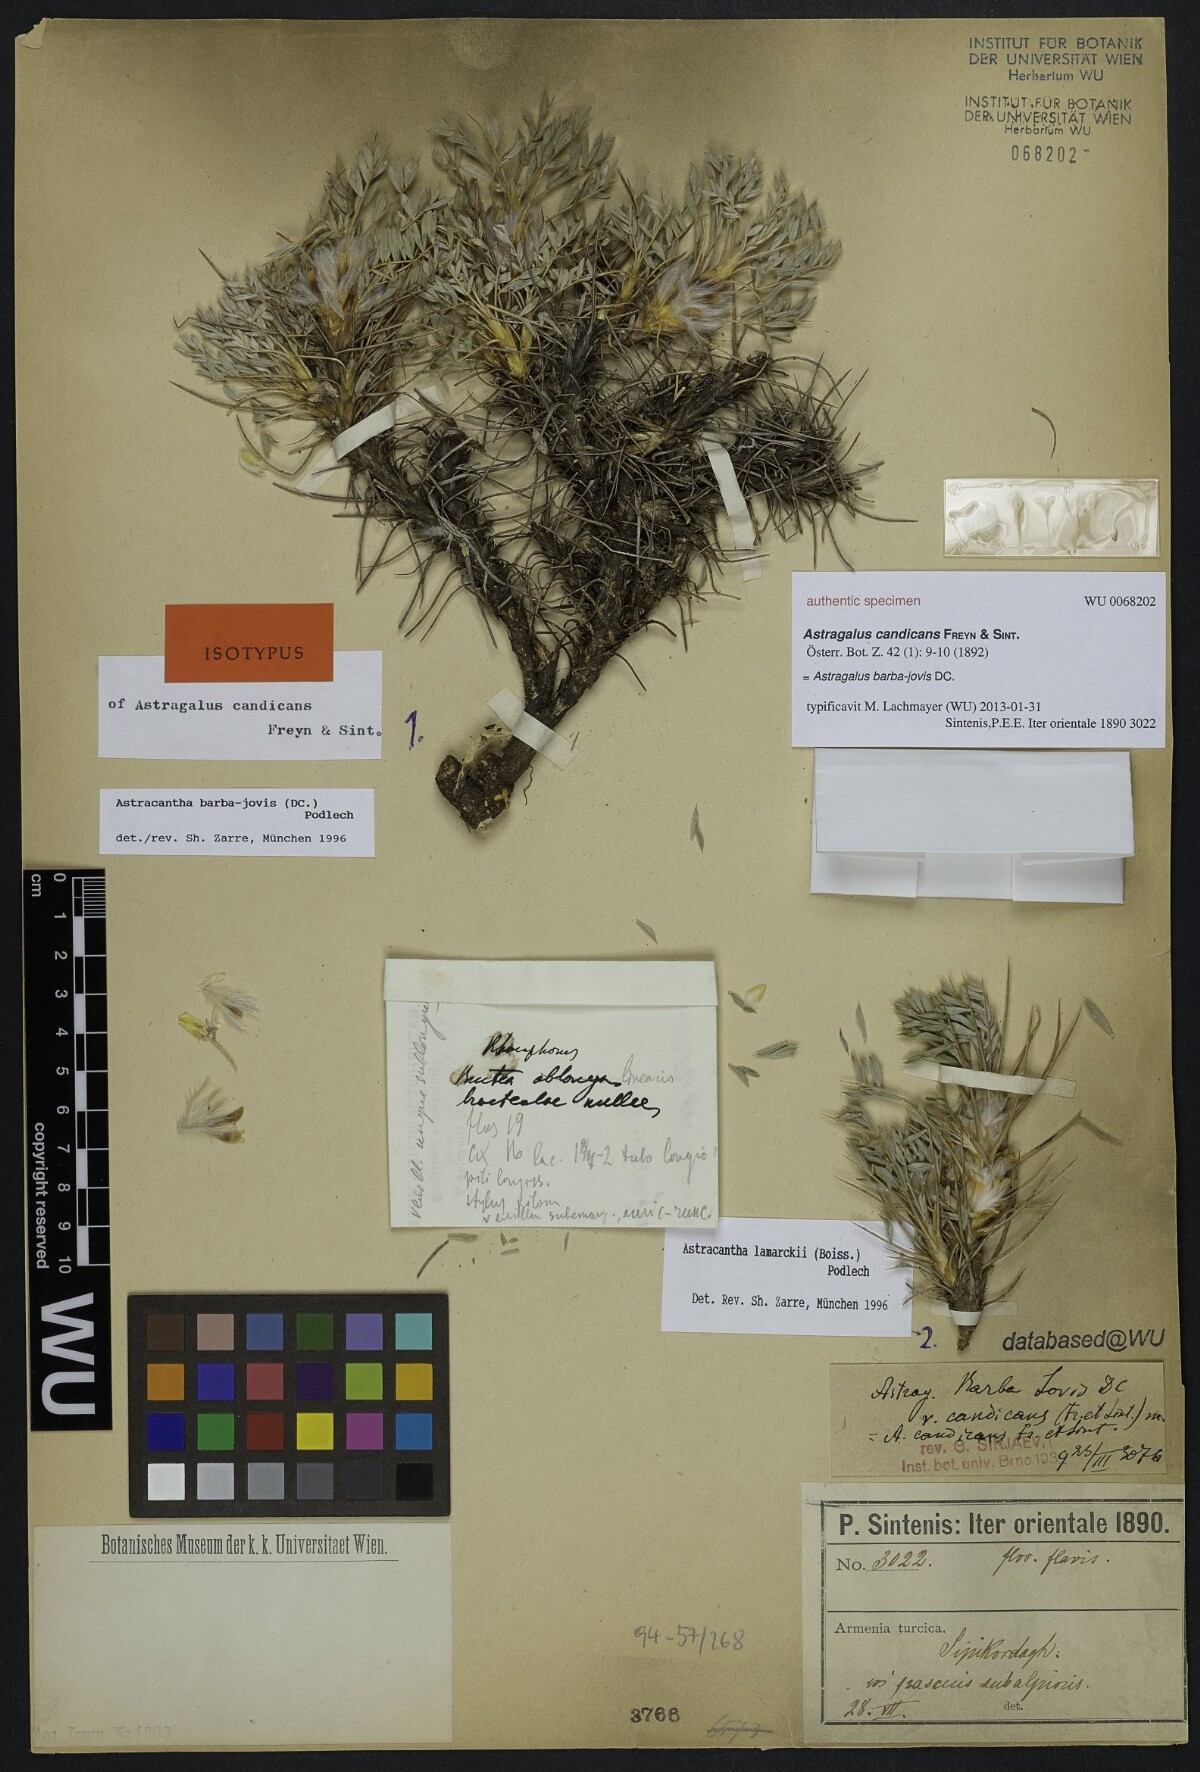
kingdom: Plantae
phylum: Tracheophyta
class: Magnoliopsida
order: Fabales
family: Fabaceae
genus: Astragalus
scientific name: Astragalus barba-jovis
